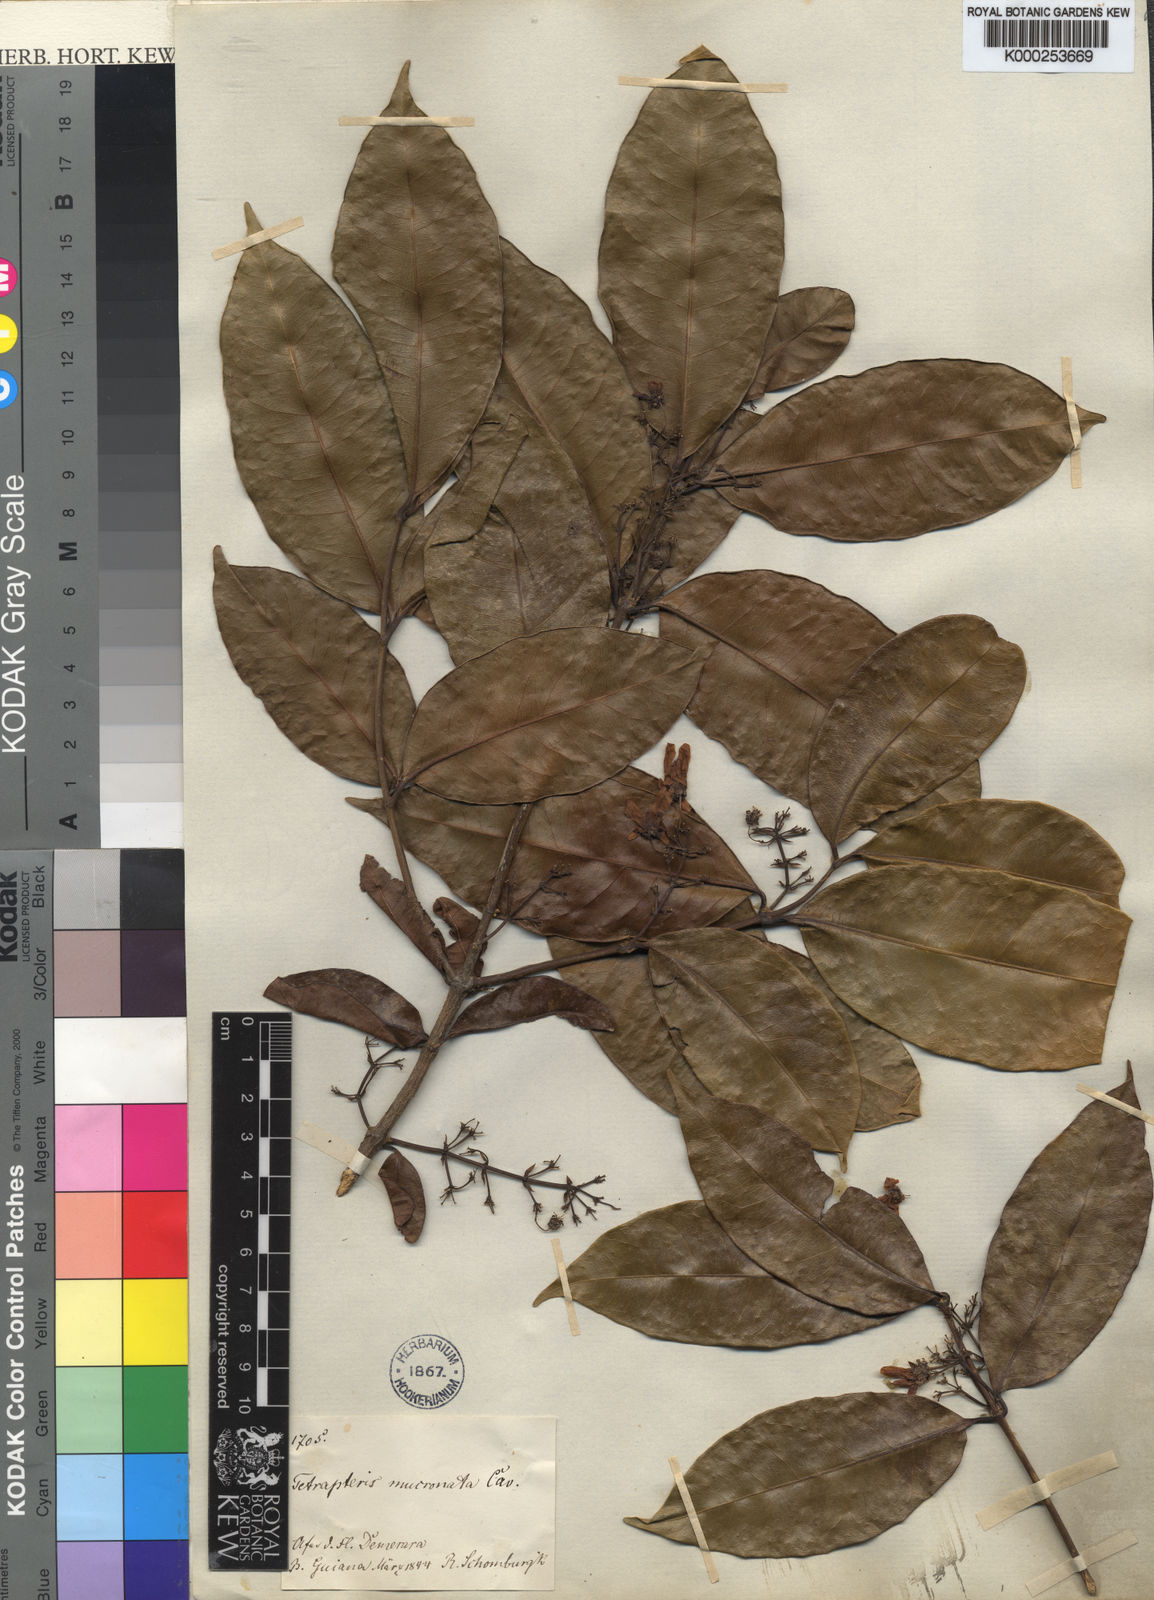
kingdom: Plantae
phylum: Tracheophyta
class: Magnoliopsida
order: Malpighiales
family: Malpighiaceae
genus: Tetrapterys
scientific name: Tetrapterys mucronata
